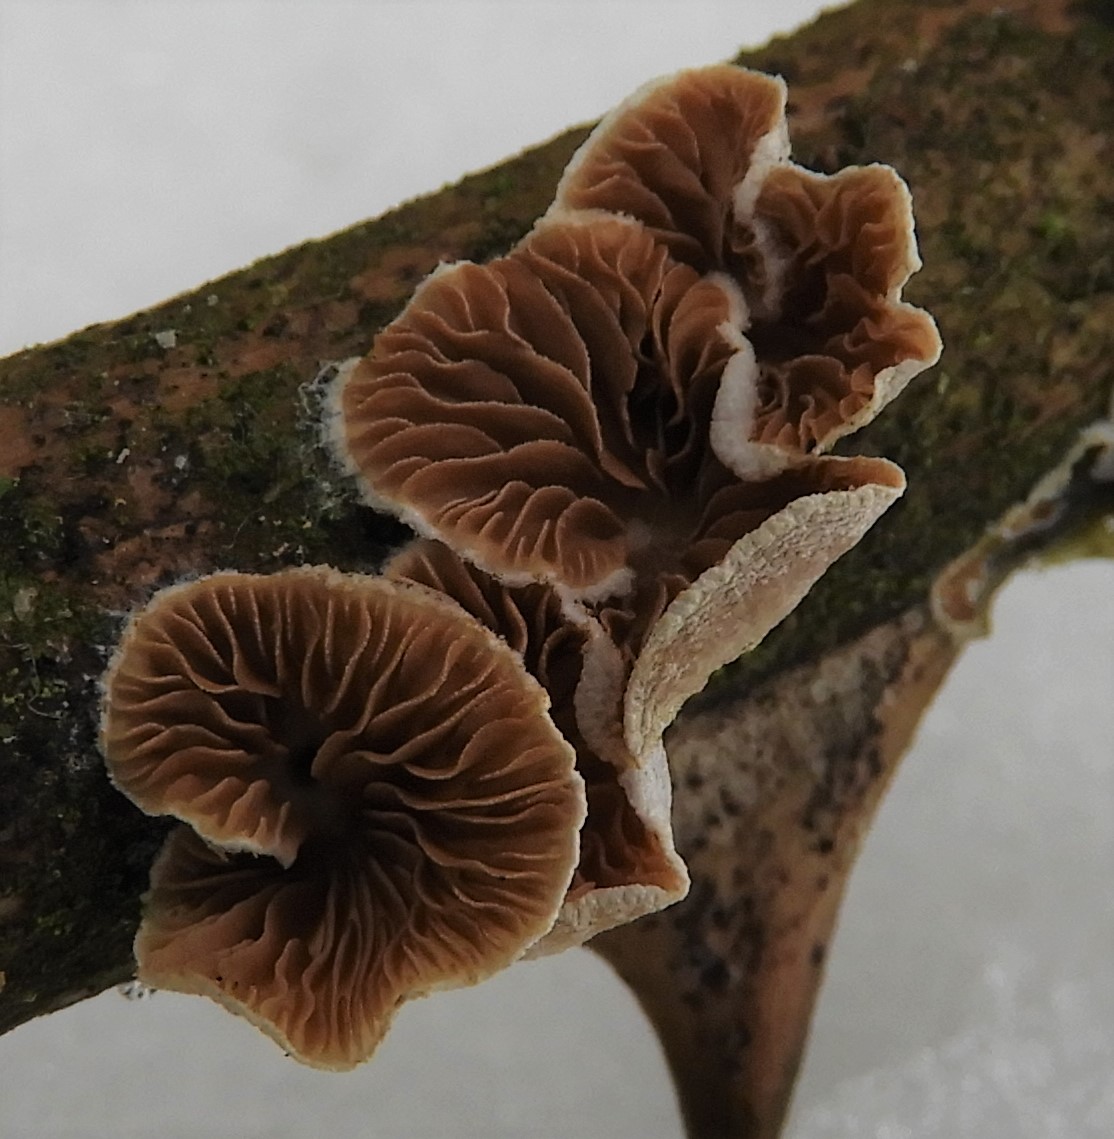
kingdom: Fungi
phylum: Basidiomycota
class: Agaricomycetes
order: Agaricales
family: Crepidotaceae
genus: Crepidotus
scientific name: Crepidotus
